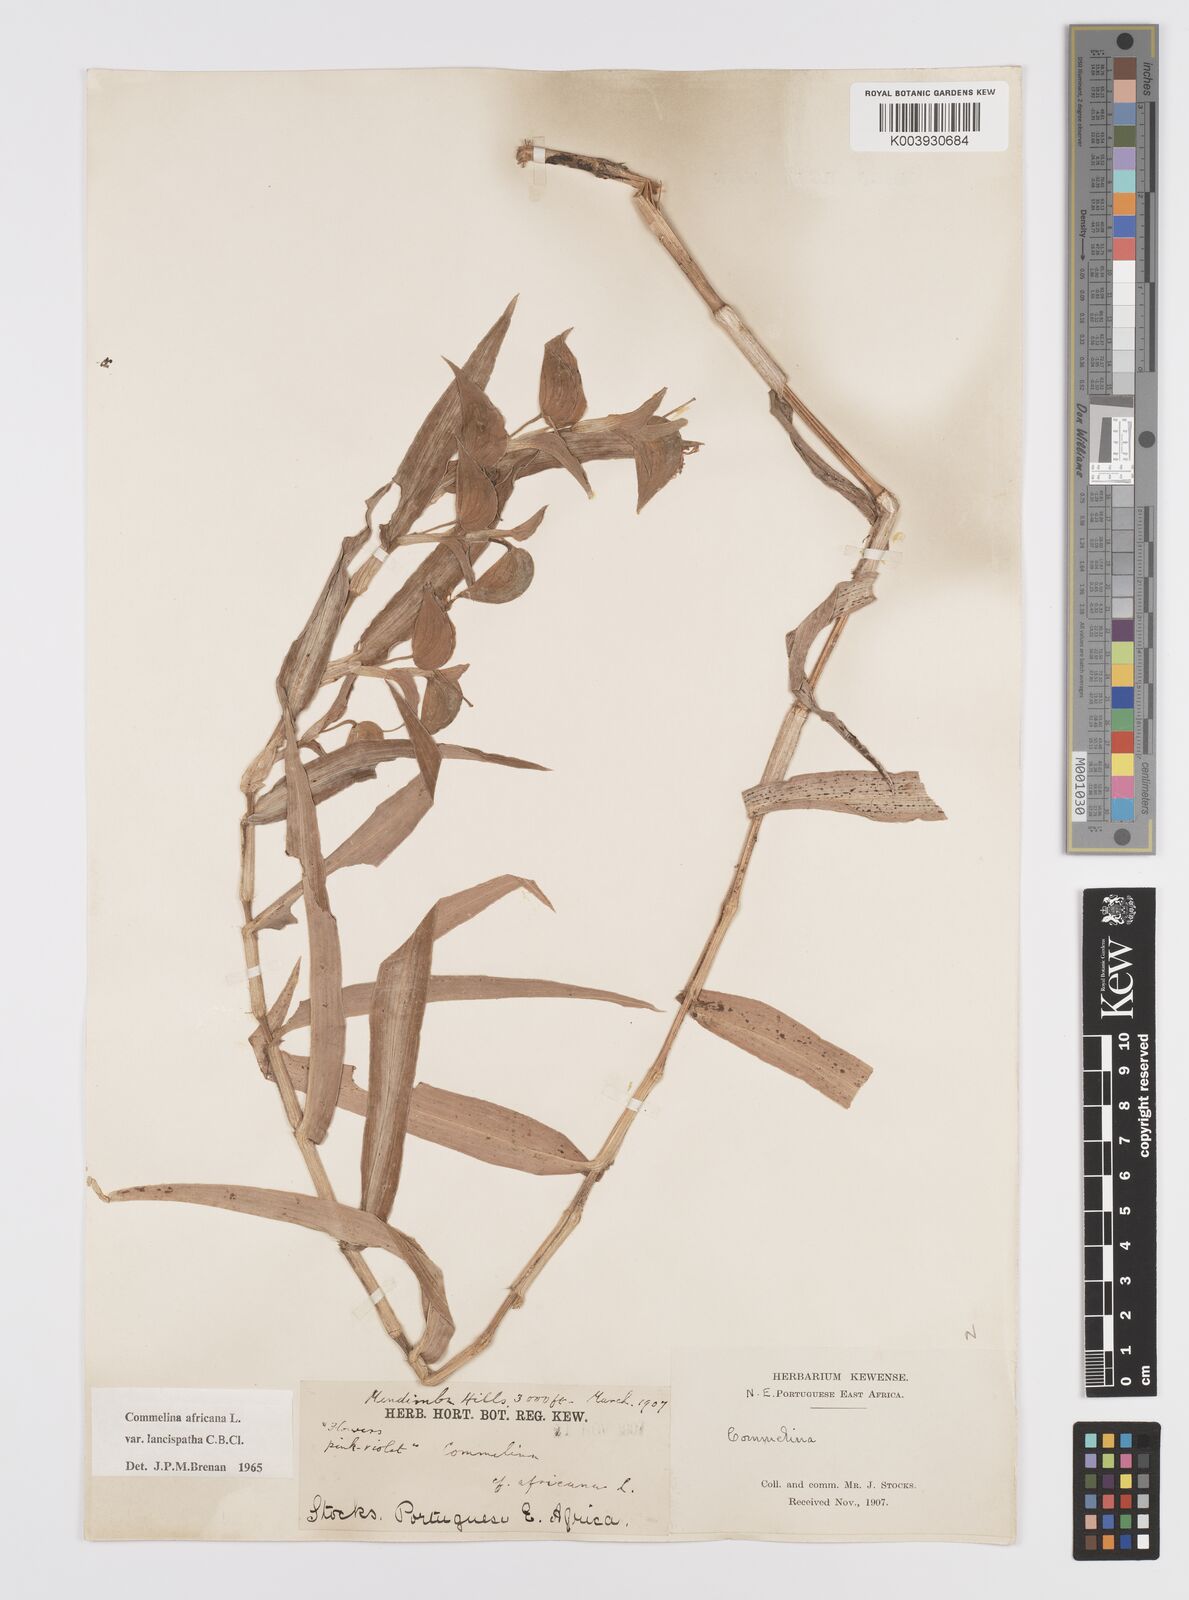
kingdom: Plantae
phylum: Tracheophyta
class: Liliopsida
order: Commelinales
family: Commelinaceae
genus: Commelina
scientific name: Commelina africana
